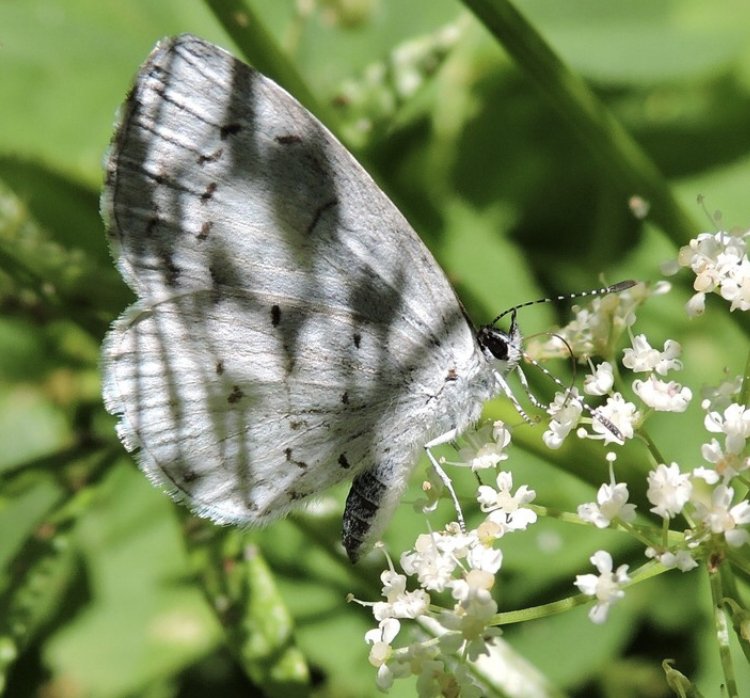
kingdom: Animalia
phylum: Arthropoda
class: Insecta
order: Lepidoptera
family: Lycaenidae
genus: Celastrina
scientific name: Celastrina neglectamajor
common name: Appalachian Azure
